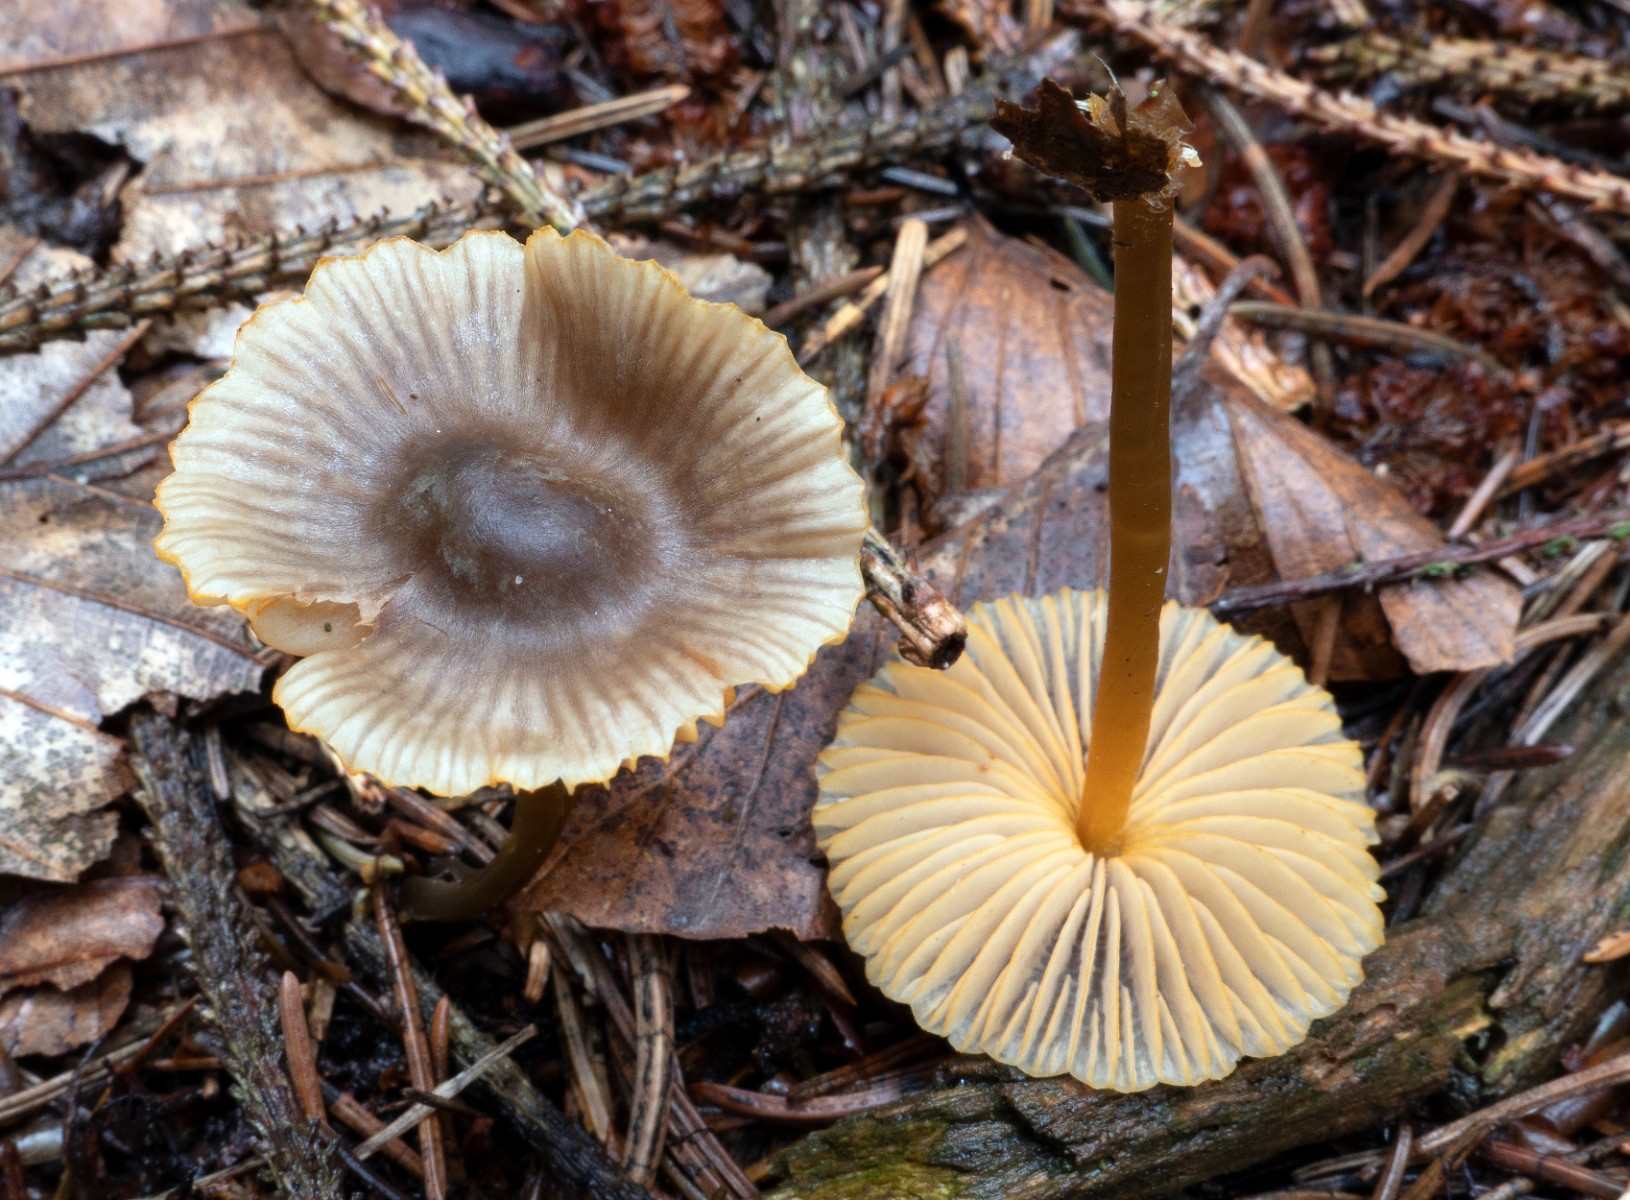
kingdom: Fungi
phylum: Basidiomycota
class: Agaricomycetes
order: Agaricales
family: Mycenaceae
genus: Mycena
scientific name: Mycena aurantiomarginata
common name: orangeægget huesvamp
